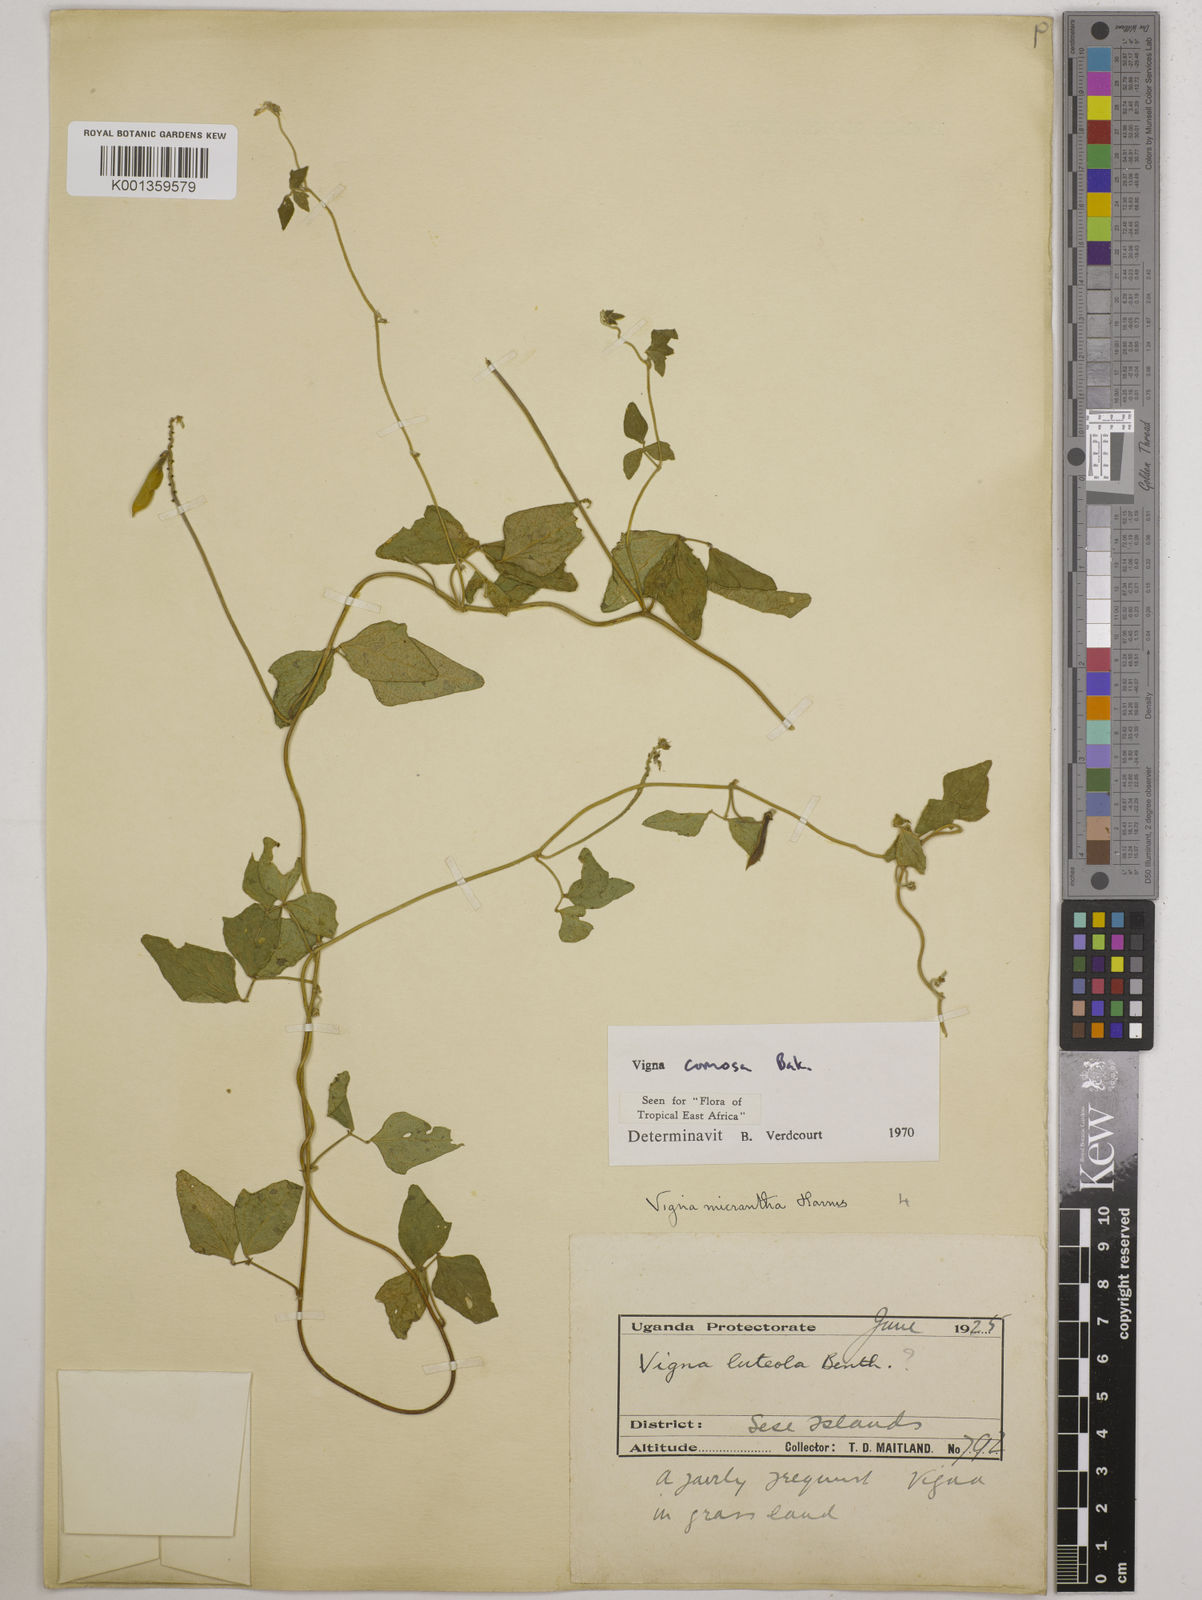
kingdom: Plantae
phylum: Tracheophyta
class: Magnoliopsida
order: Fabales
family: Fabaceae
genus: Vigna
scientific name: Vigna comosa
